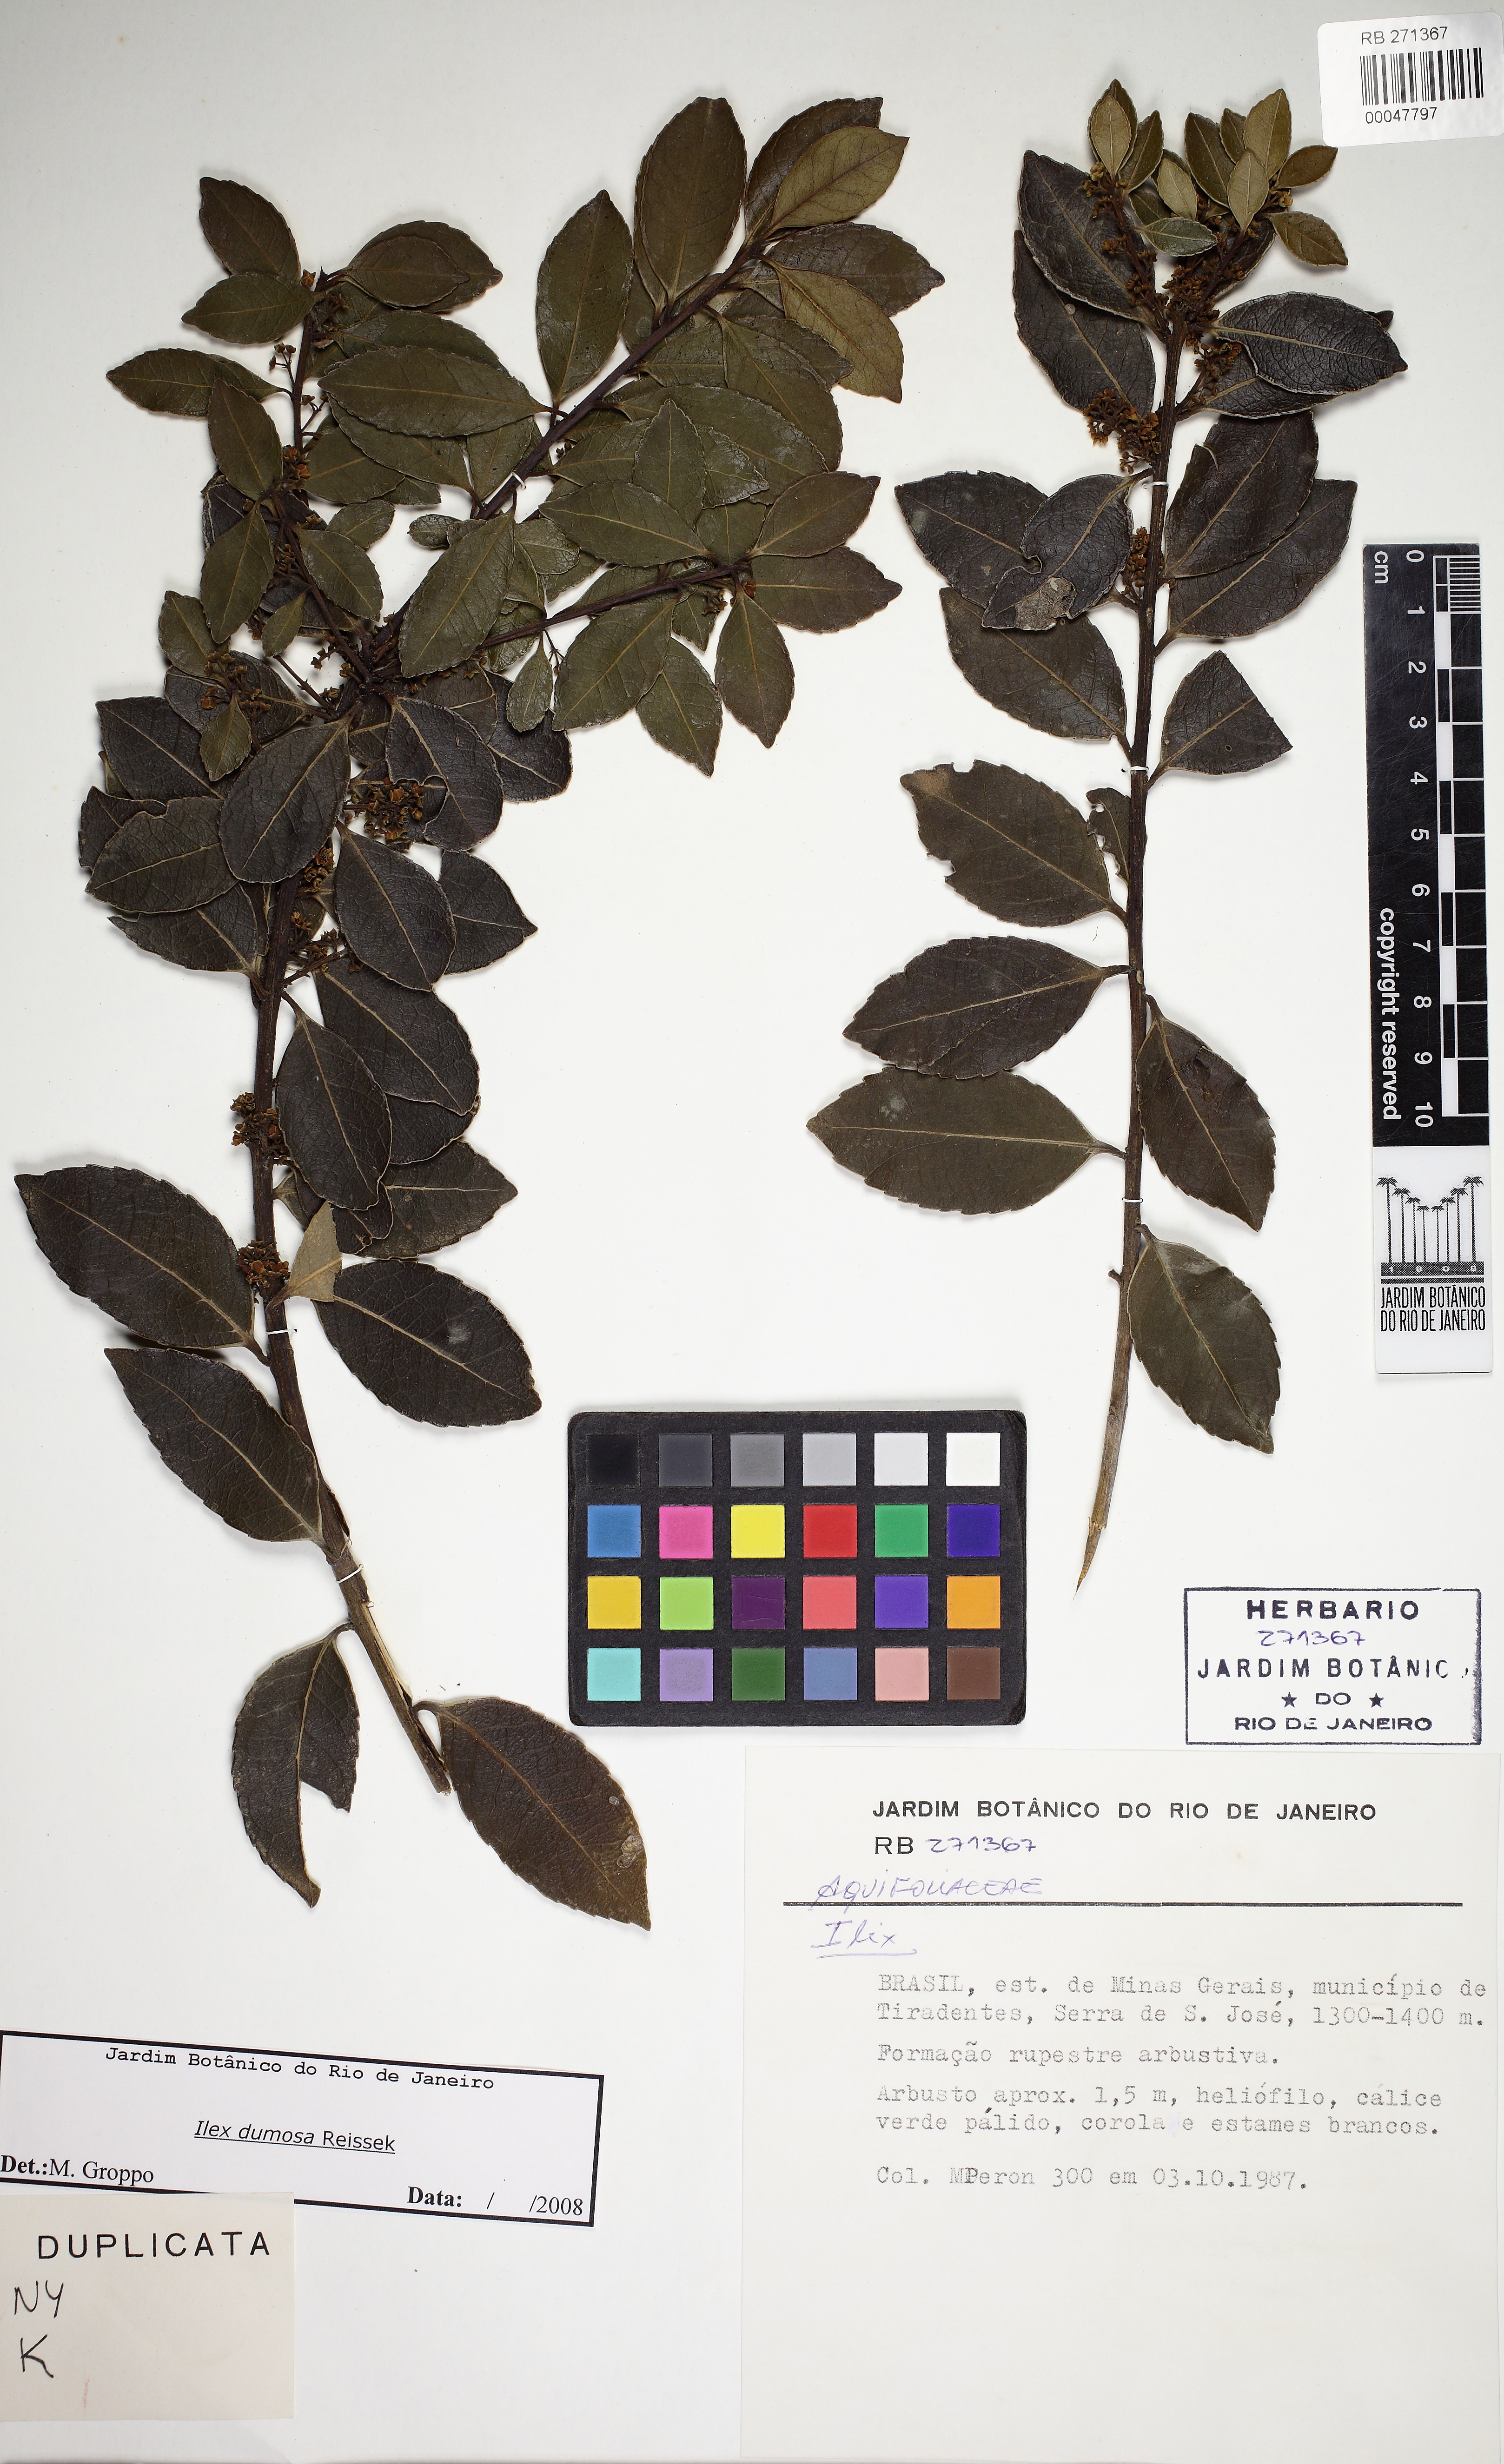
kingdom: Plantae
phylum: Tracheophyta
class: Magnoliopsida
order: Aquifoliales
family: Aquifoliaceae
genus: Ilex
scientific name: Ilex dumosa
